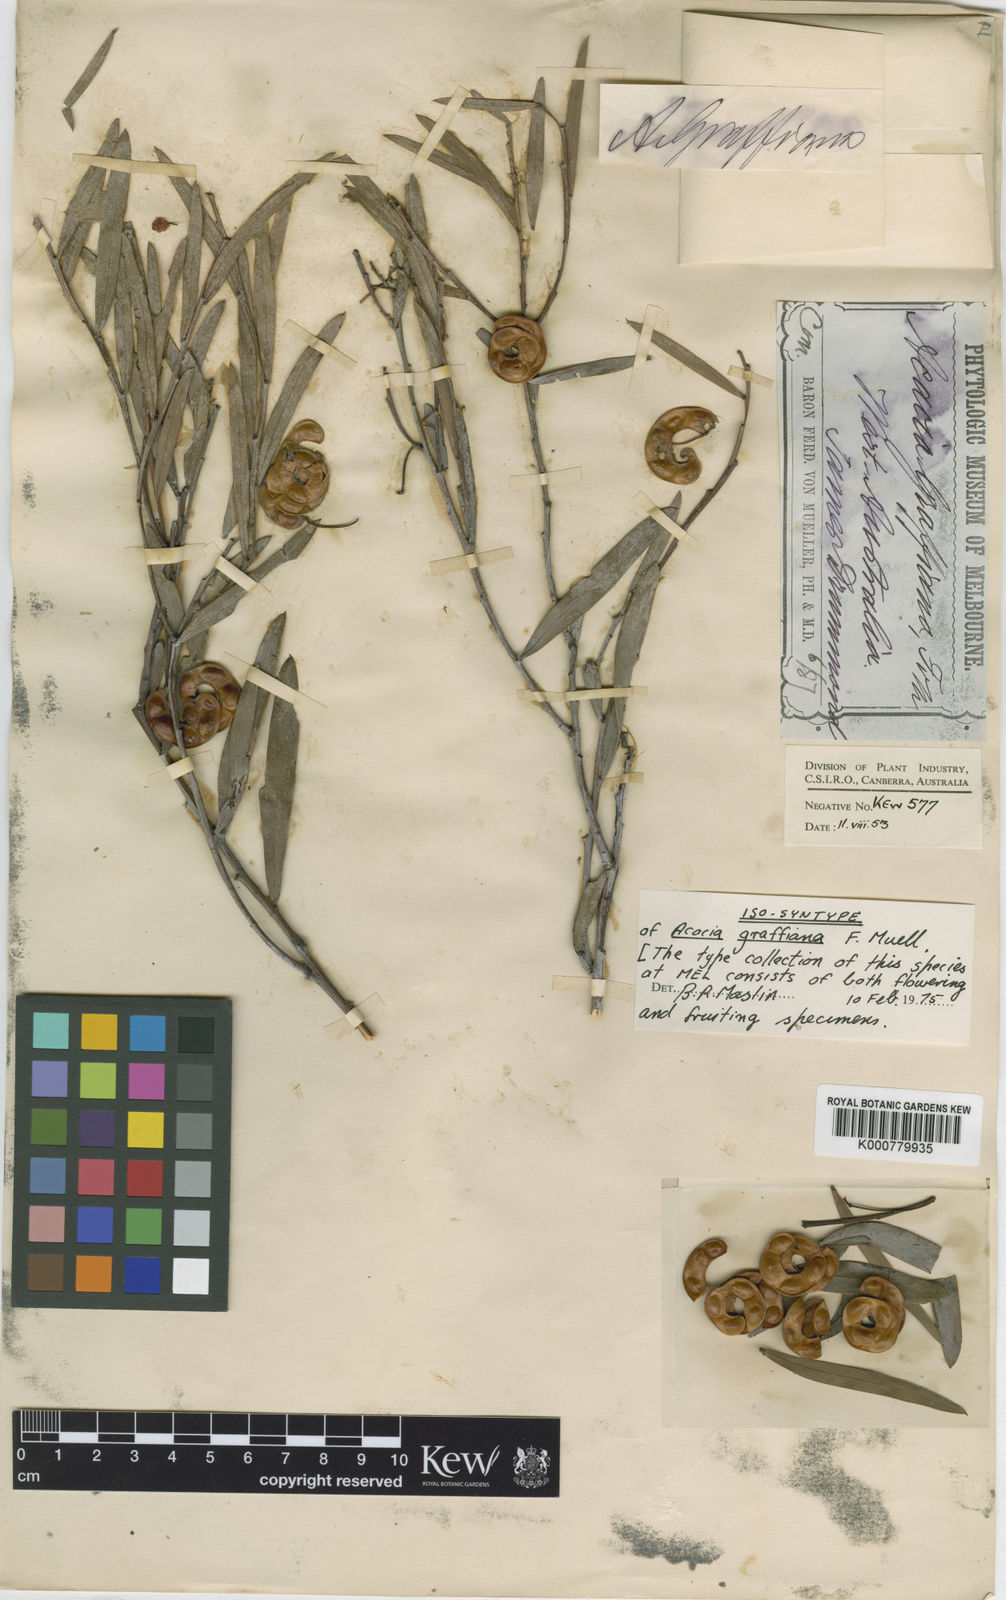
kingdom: Plantae
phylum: Tracheophyta
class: Magnoliopsida
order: Fabales
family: Fabaceae
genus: Acacia
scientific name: Acacia hemiteles
